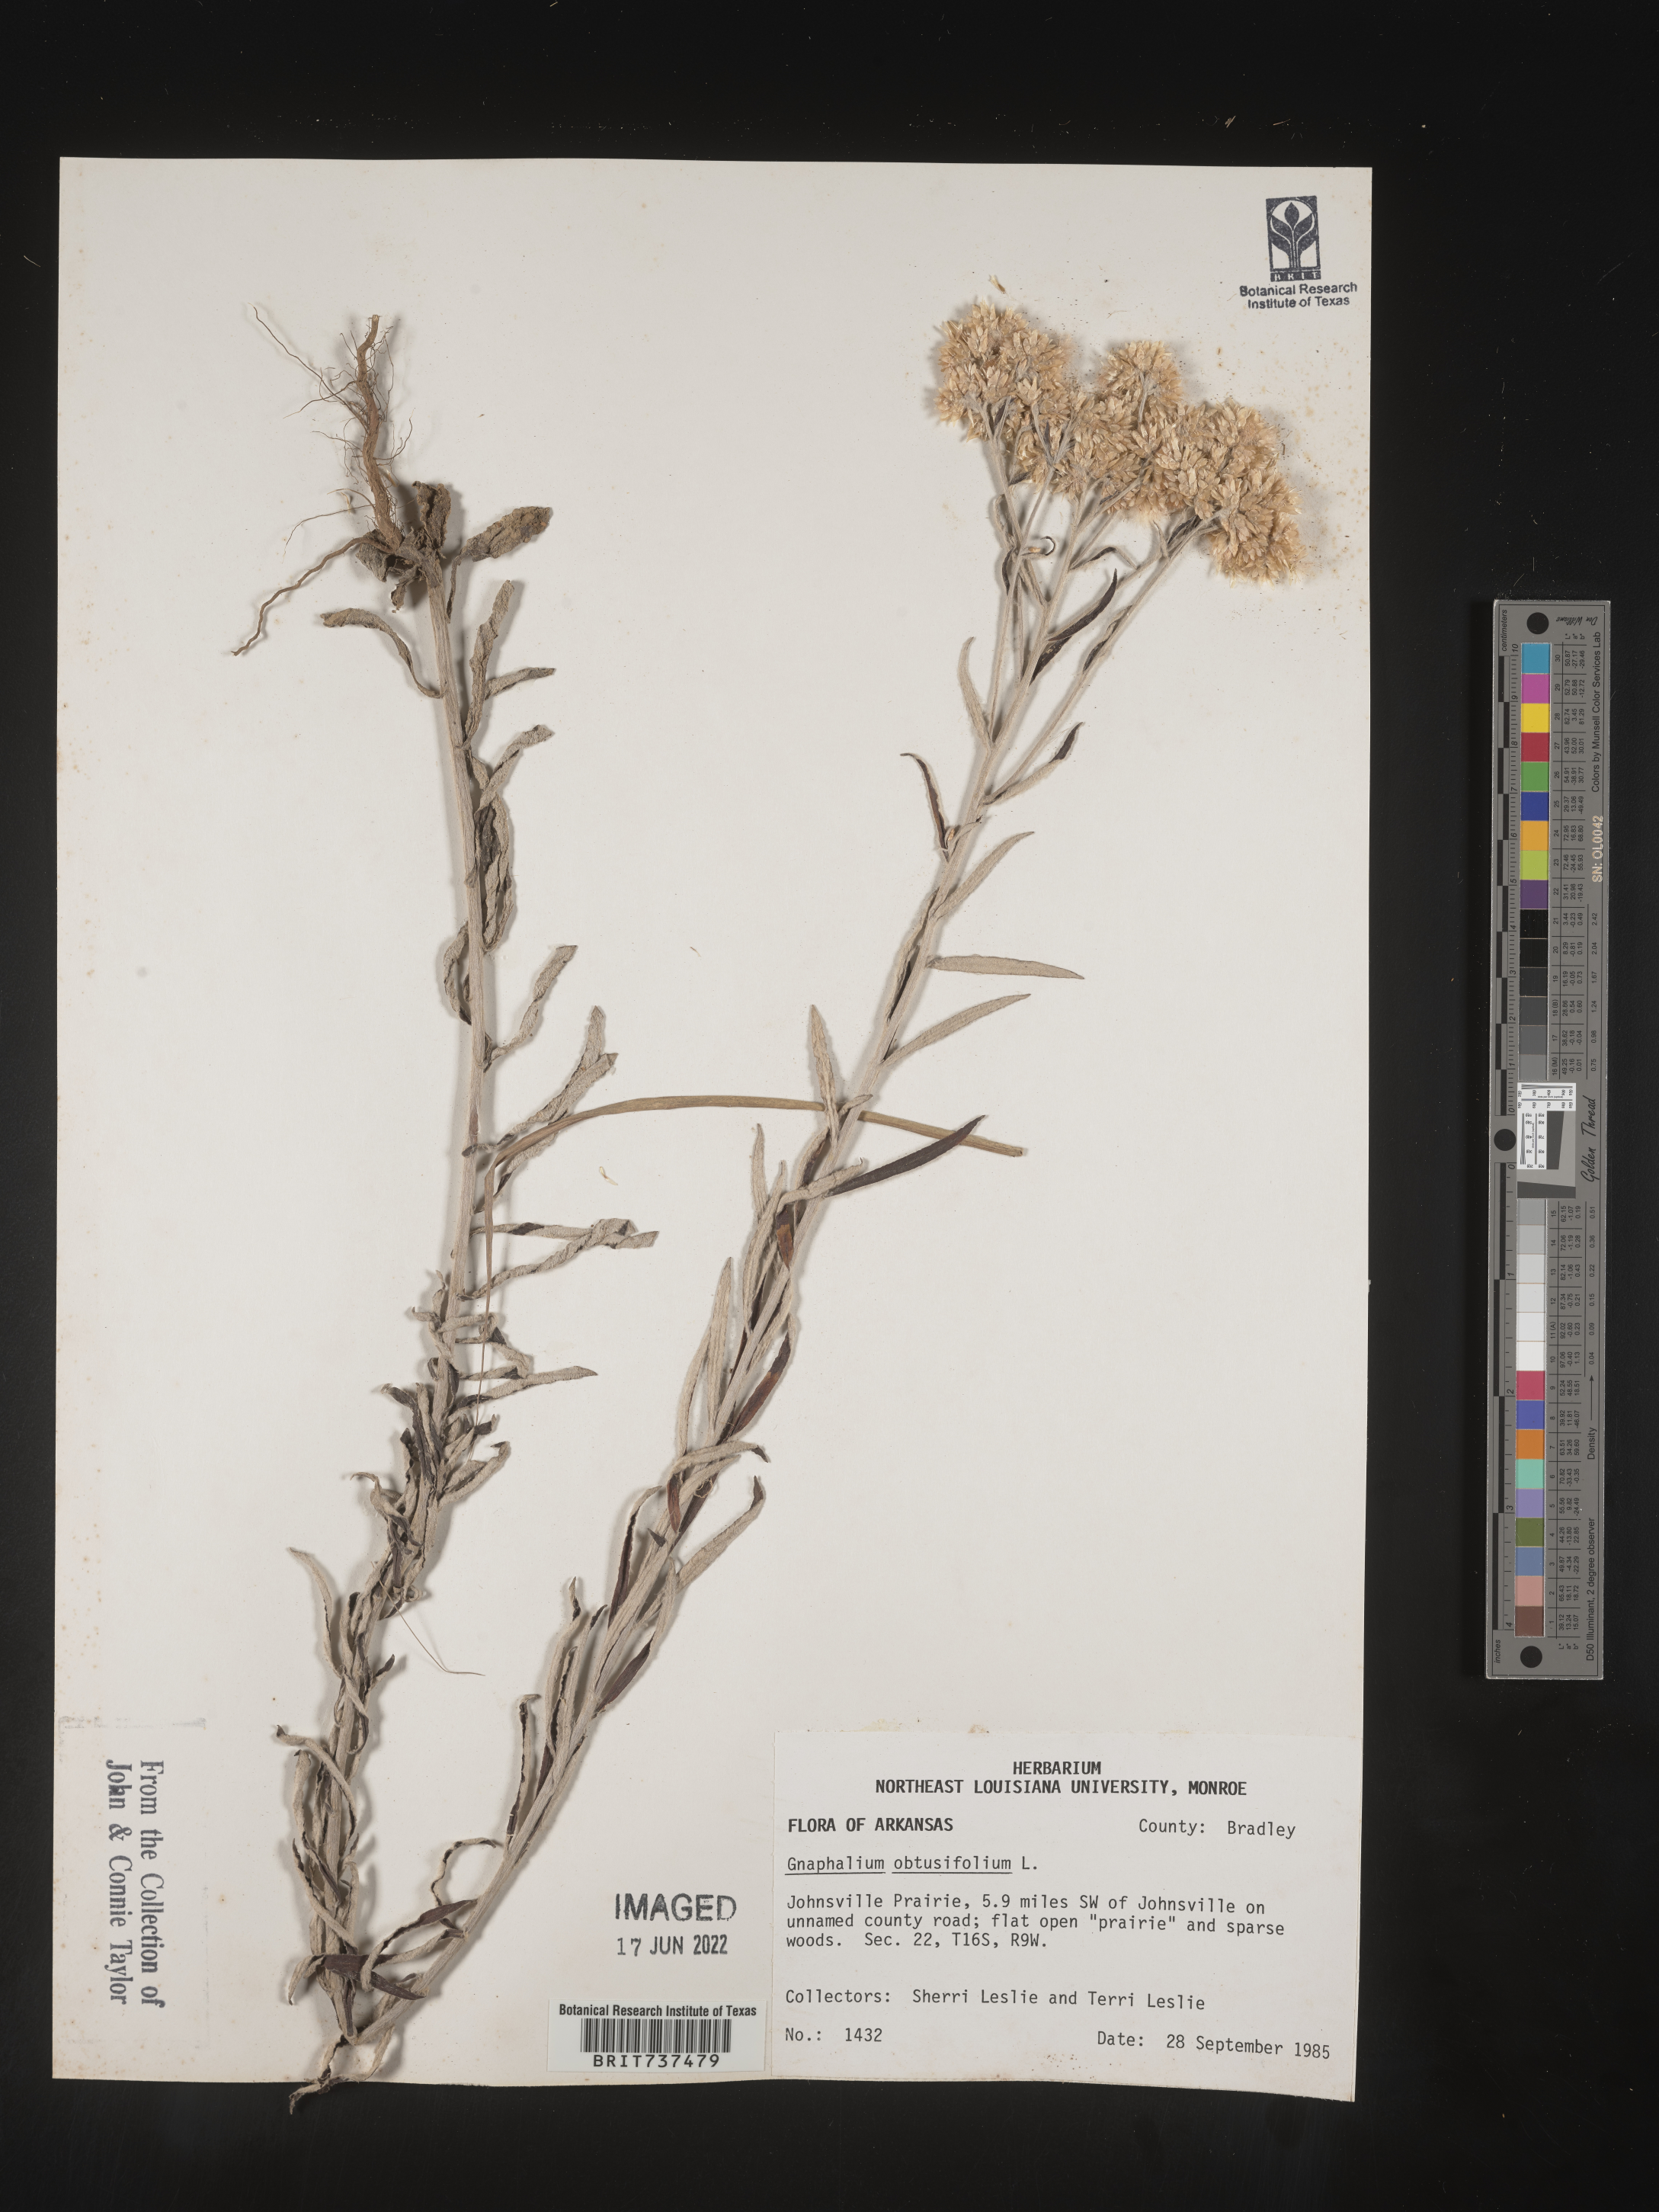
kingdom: Plantae
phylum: Tracheophyta
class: Magnoliopsida
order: Asterales
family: Asteraceae
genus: Pseudognaphalium
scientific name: Pseudognaphalium obtusifolium
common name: Eastern rabbit-tobacco
